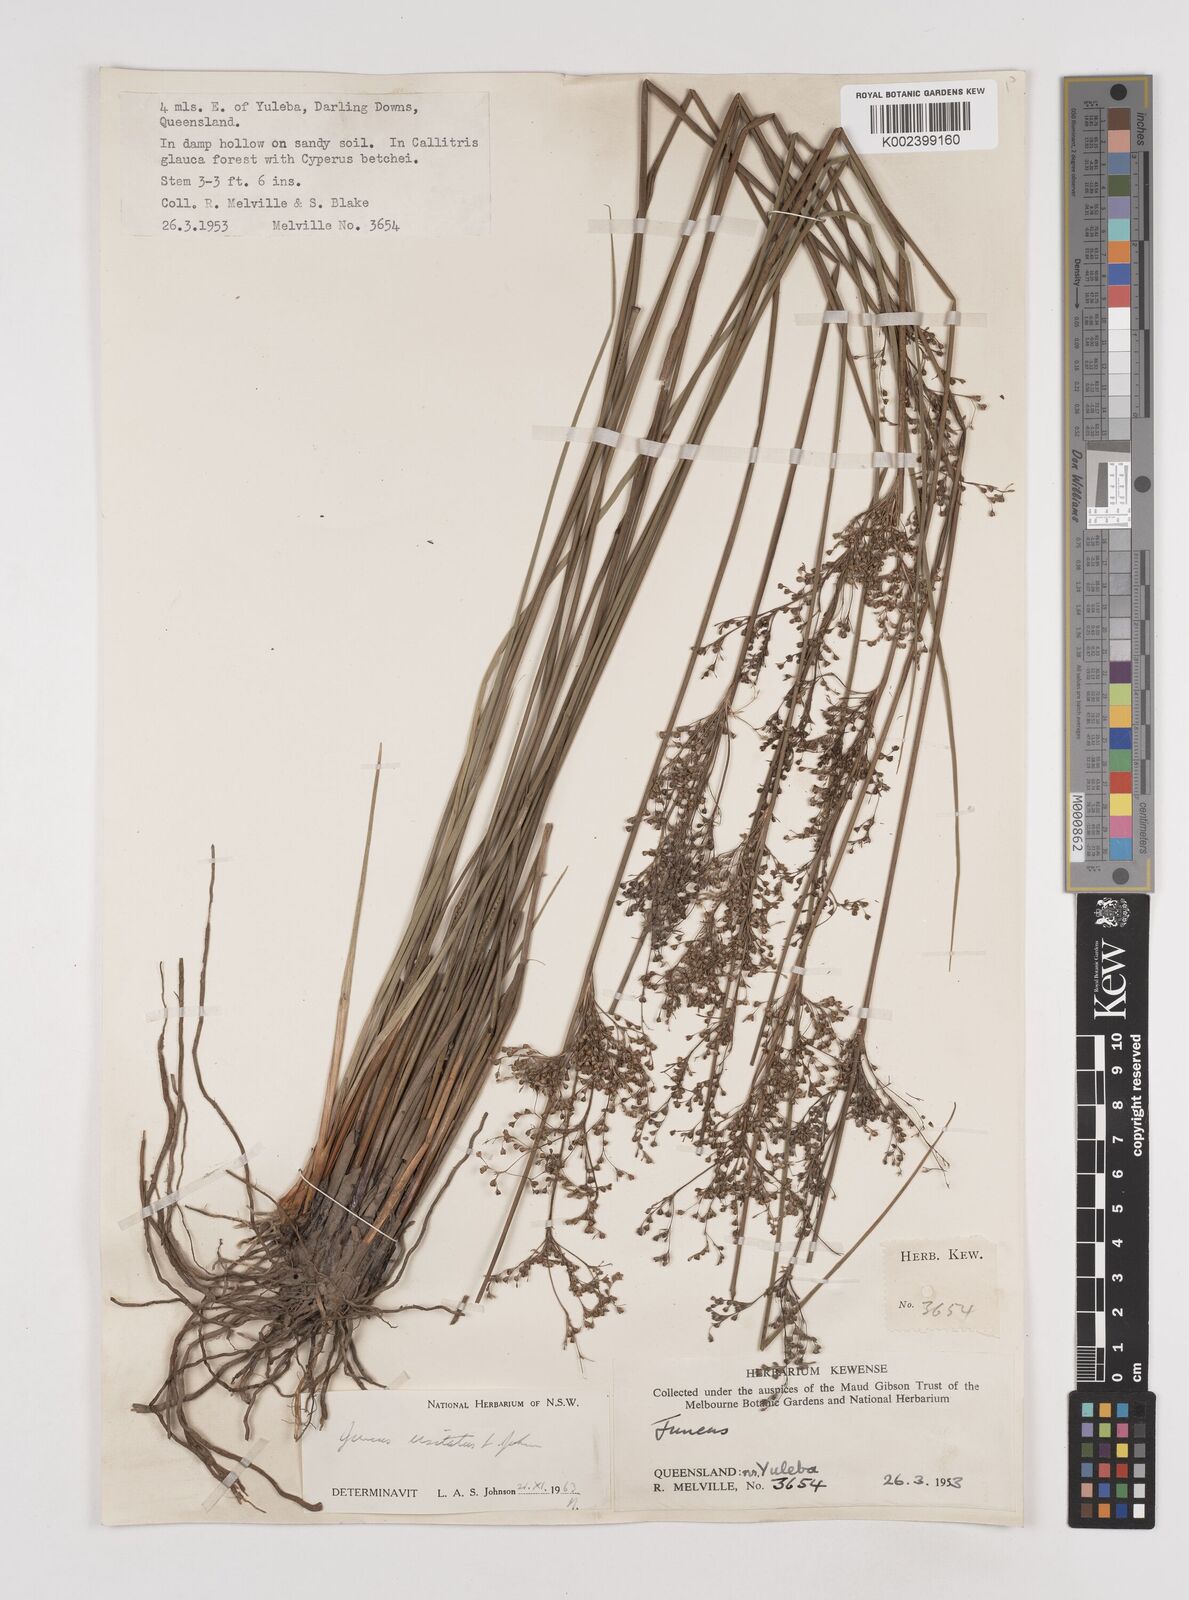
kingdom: Plantae
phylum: Tracheophyta
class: Liliopsida
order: Poales
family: Juncaceae
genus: Juncus
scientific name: Juncus usitatus
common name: Rush
